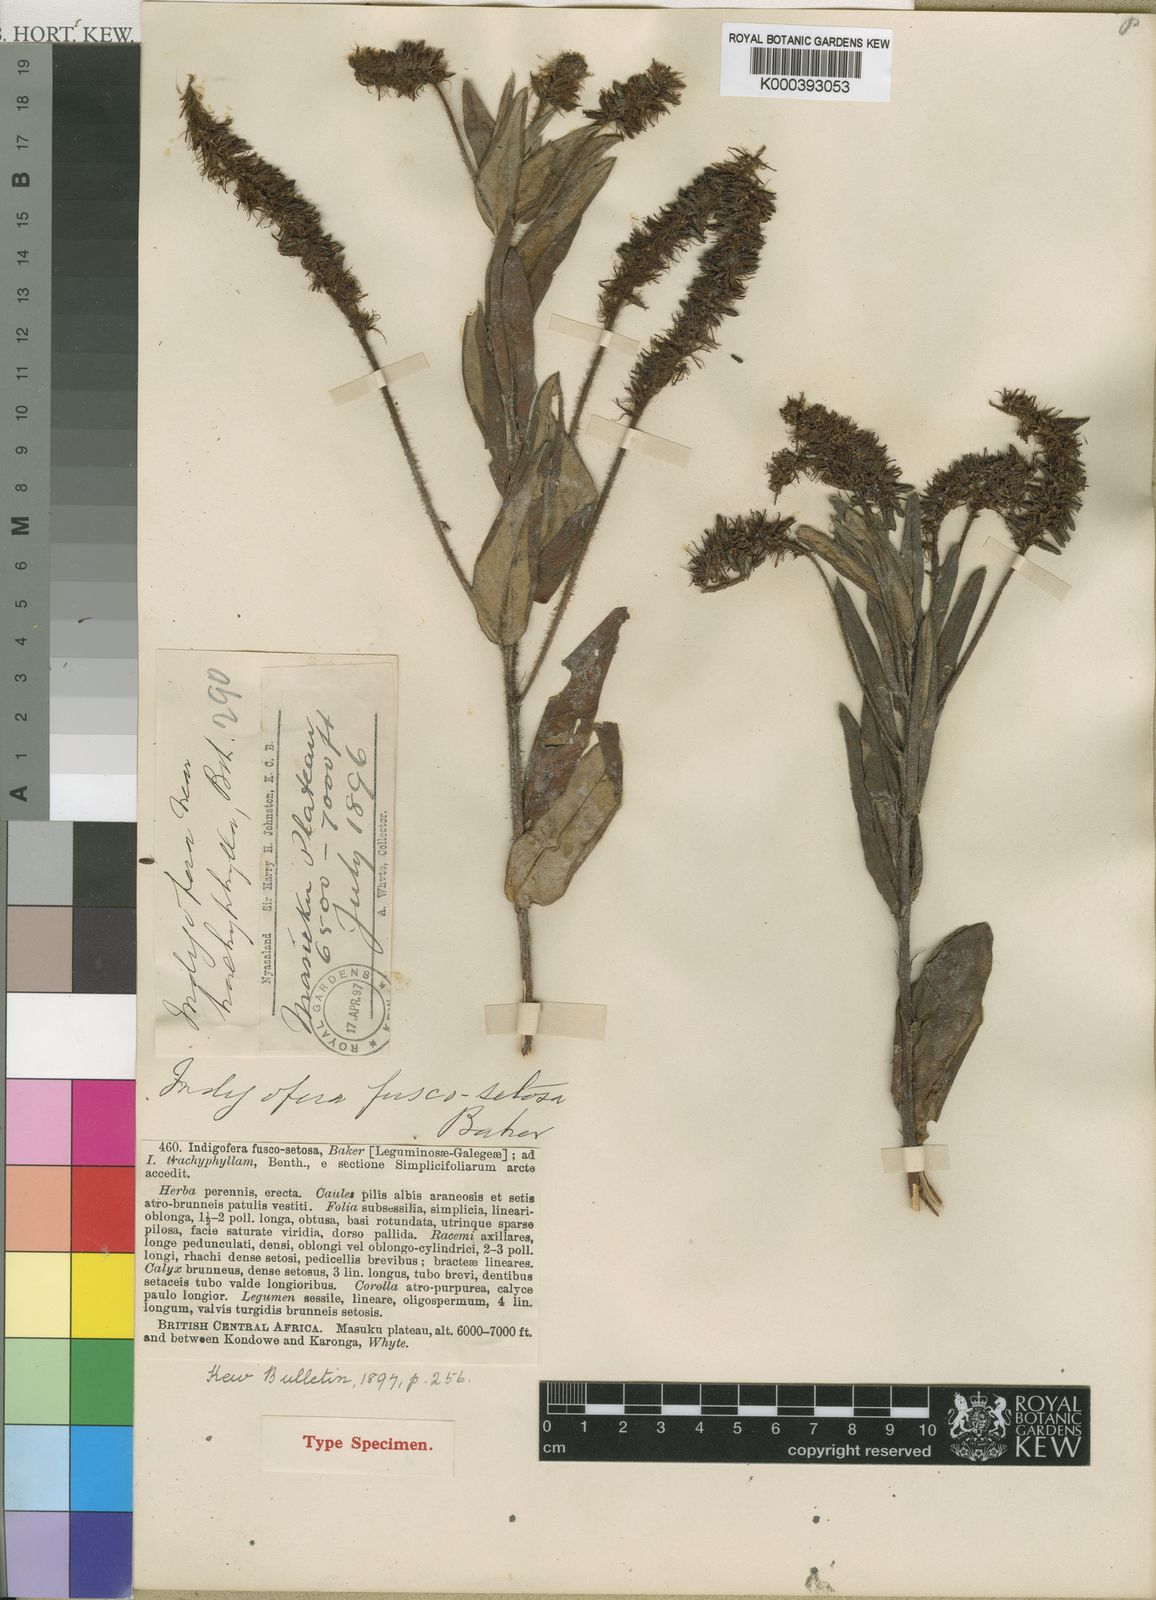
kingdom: Plantae
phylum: Tracheophyta
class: Magnoliopsida
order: Fabales
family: Fabaceae
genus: Indigofera
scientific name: Indigofera fuscosetosa
